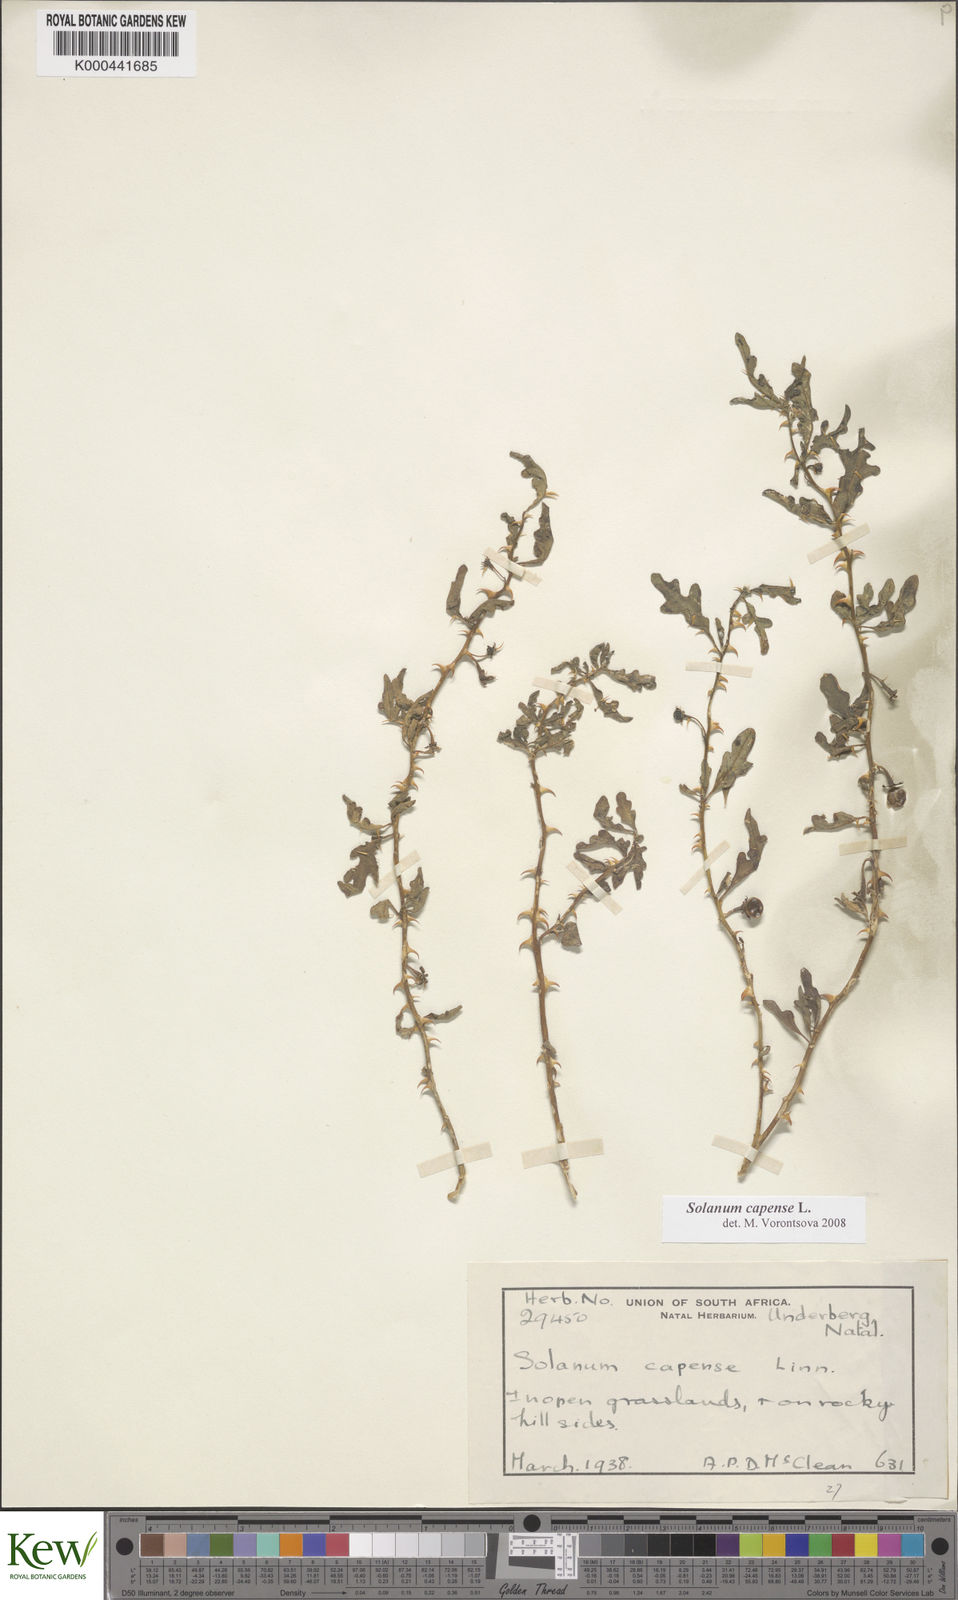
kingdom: Plantae
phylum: Tracheophyta
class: Magnoliopsida
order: Solanales
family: Solanaceae
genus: Solanum
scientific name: Solanum capense
